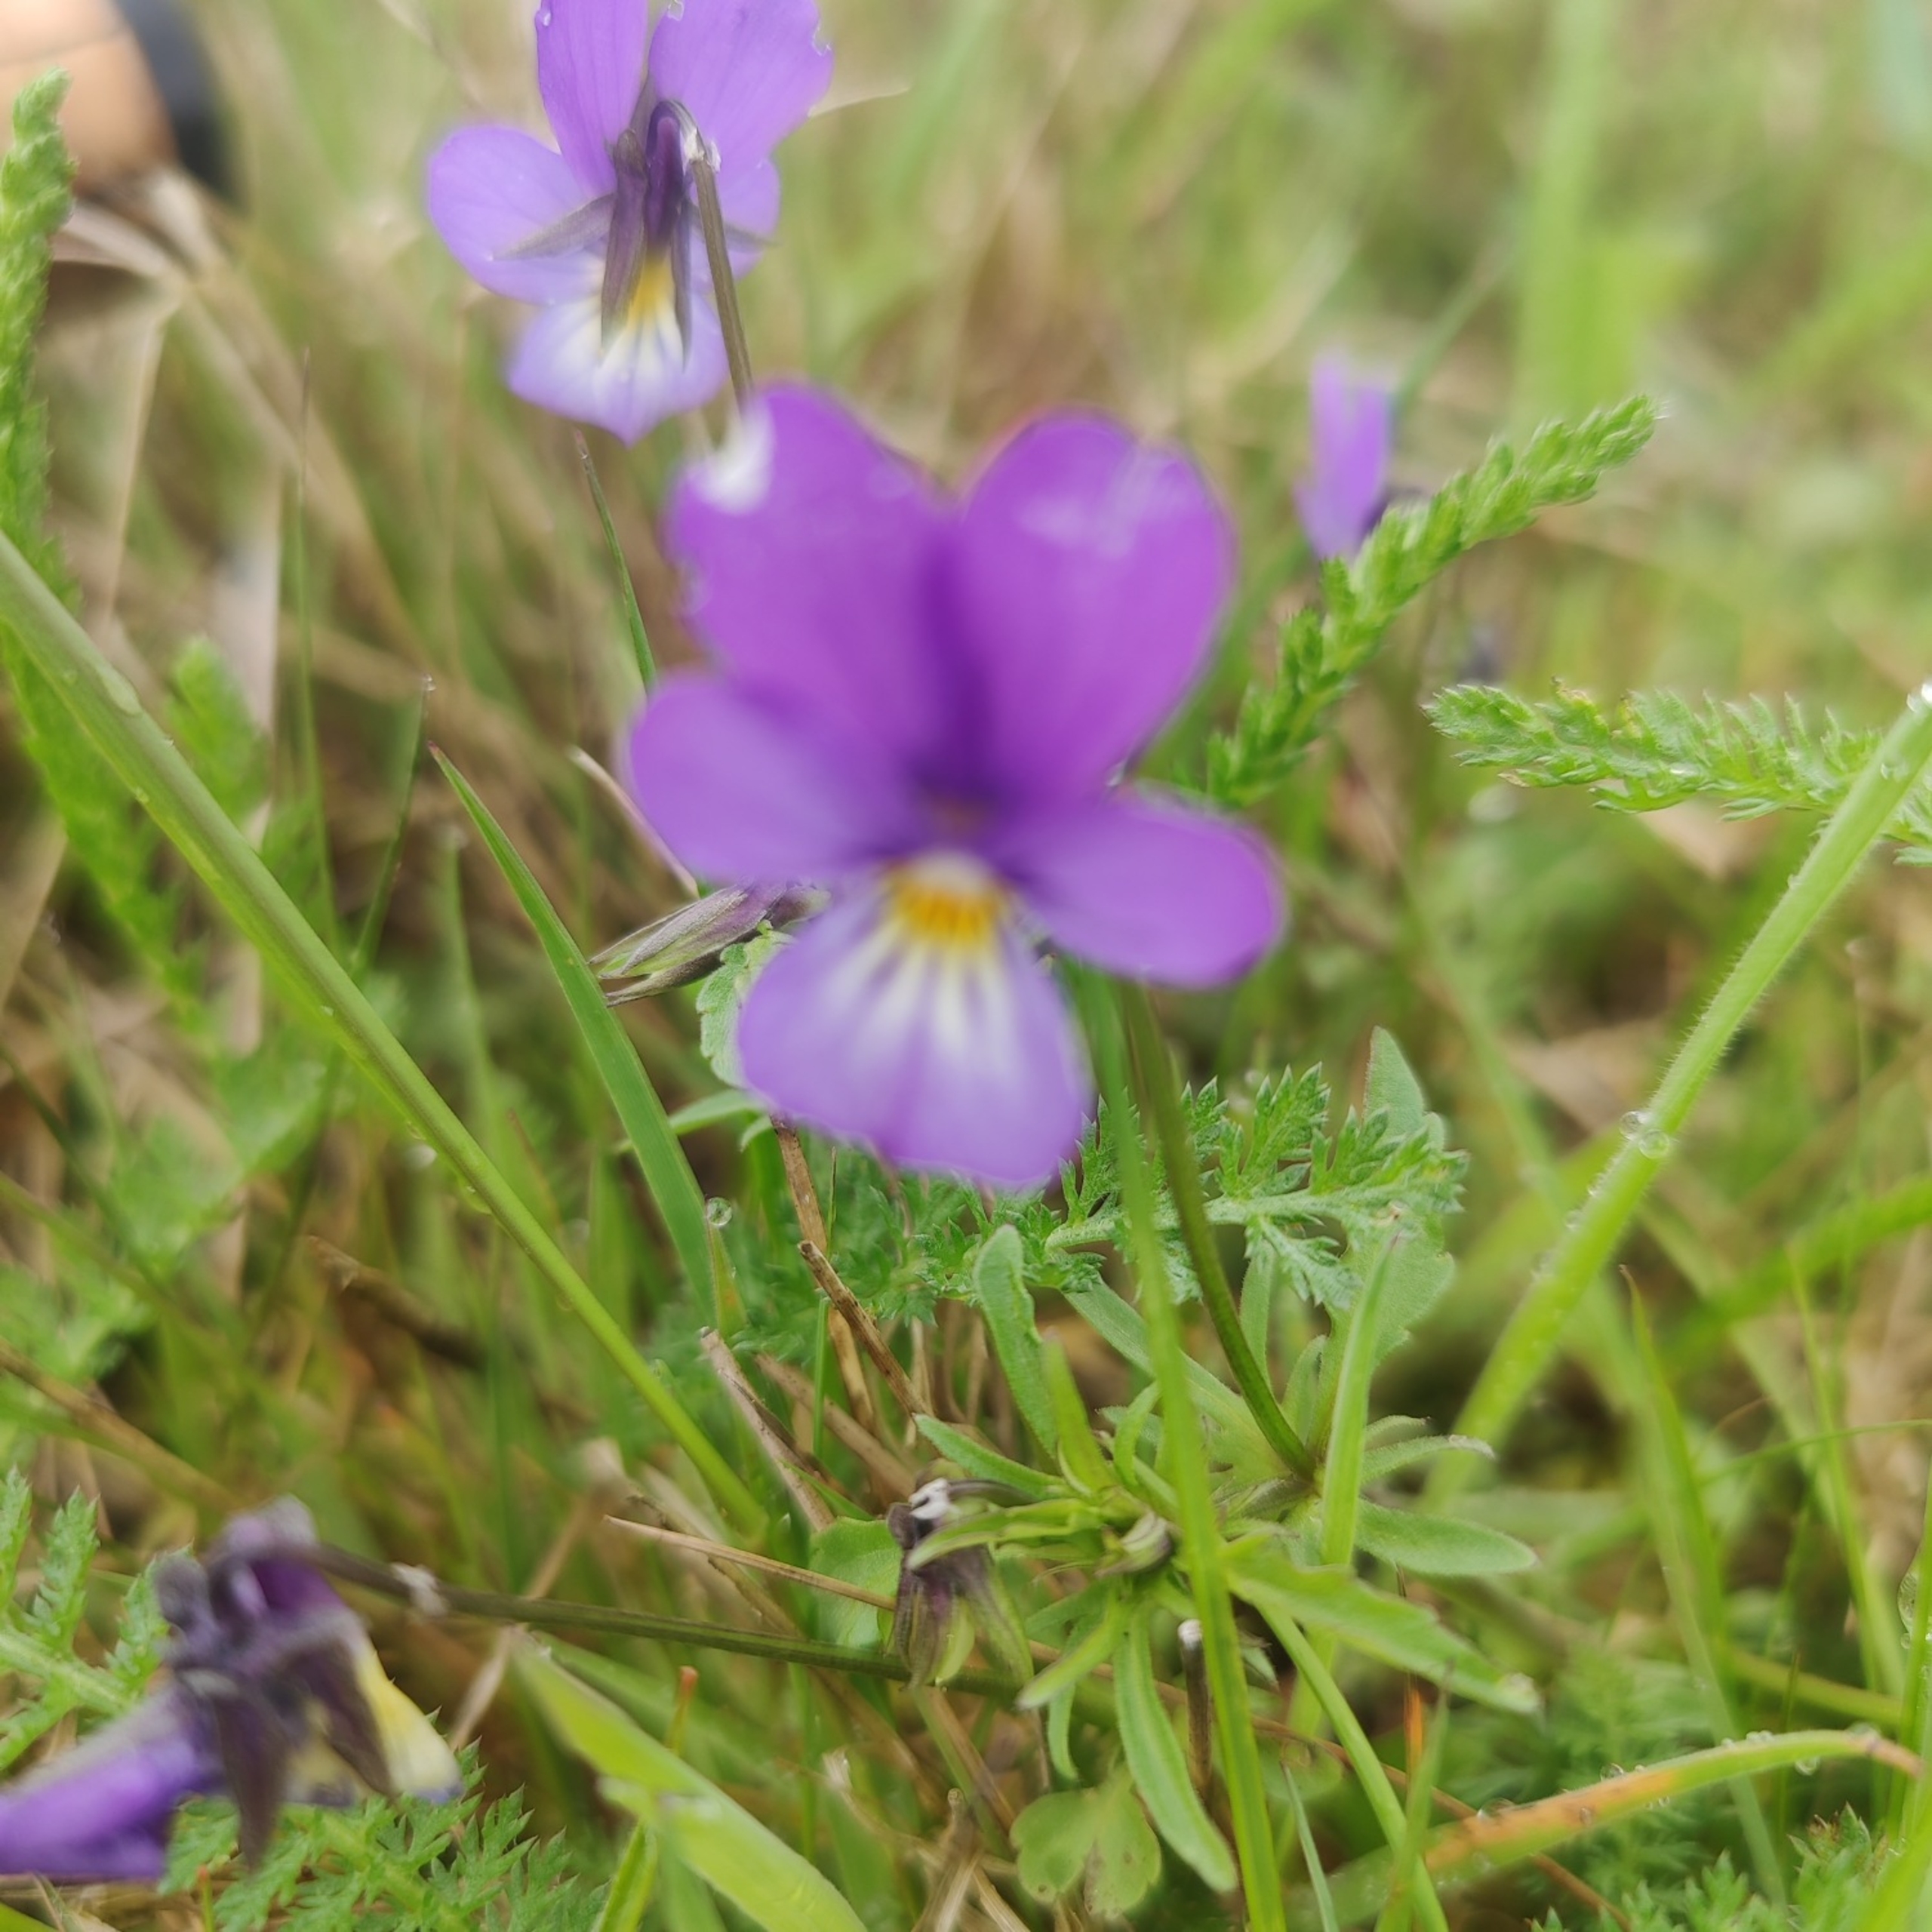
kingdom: Plantae
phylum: Tracheophyta
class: Magnoliopsida
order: Malpighiales
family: Violaceae
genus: Viola
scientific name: Viola tricolor
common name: Stedmoderblomst
